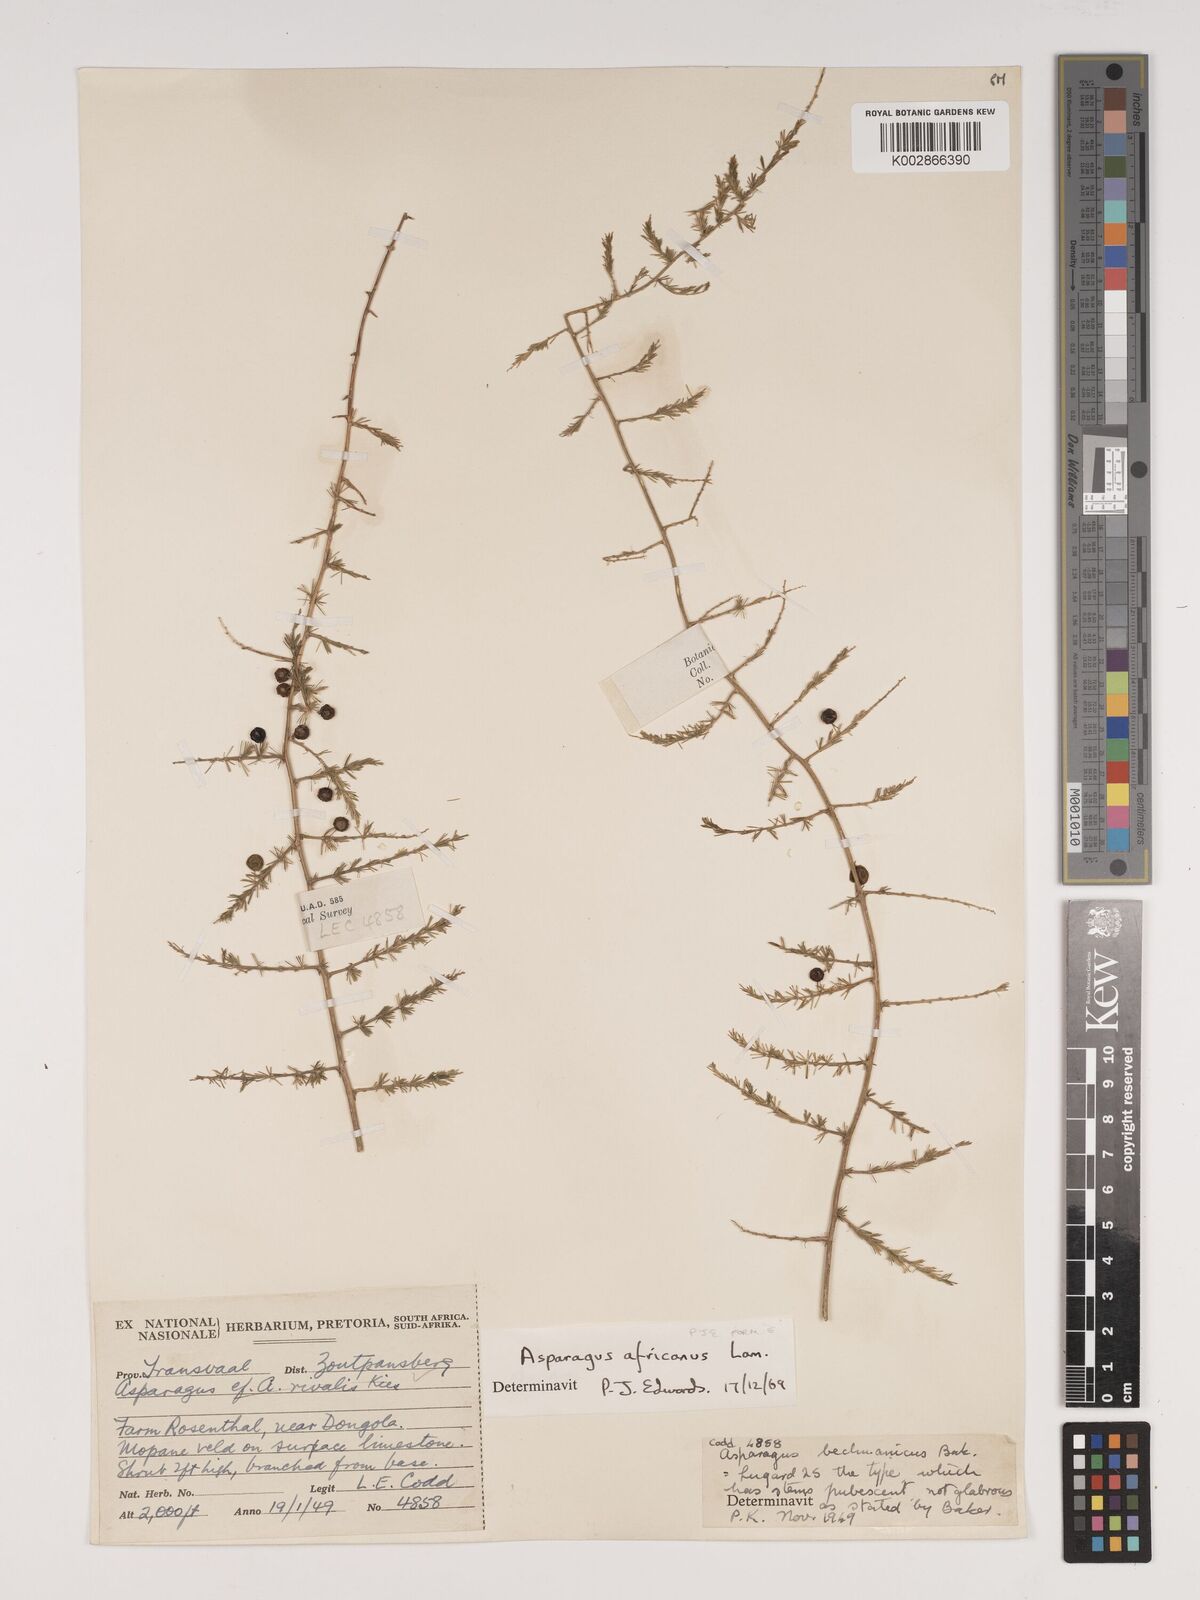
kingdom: Plantae
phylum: Tracheophyta
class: Liliopsida
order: Asparagales
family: Asparagaceae
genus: Asparagus
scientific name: Asparagus africanus
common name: Asparagus-fern
